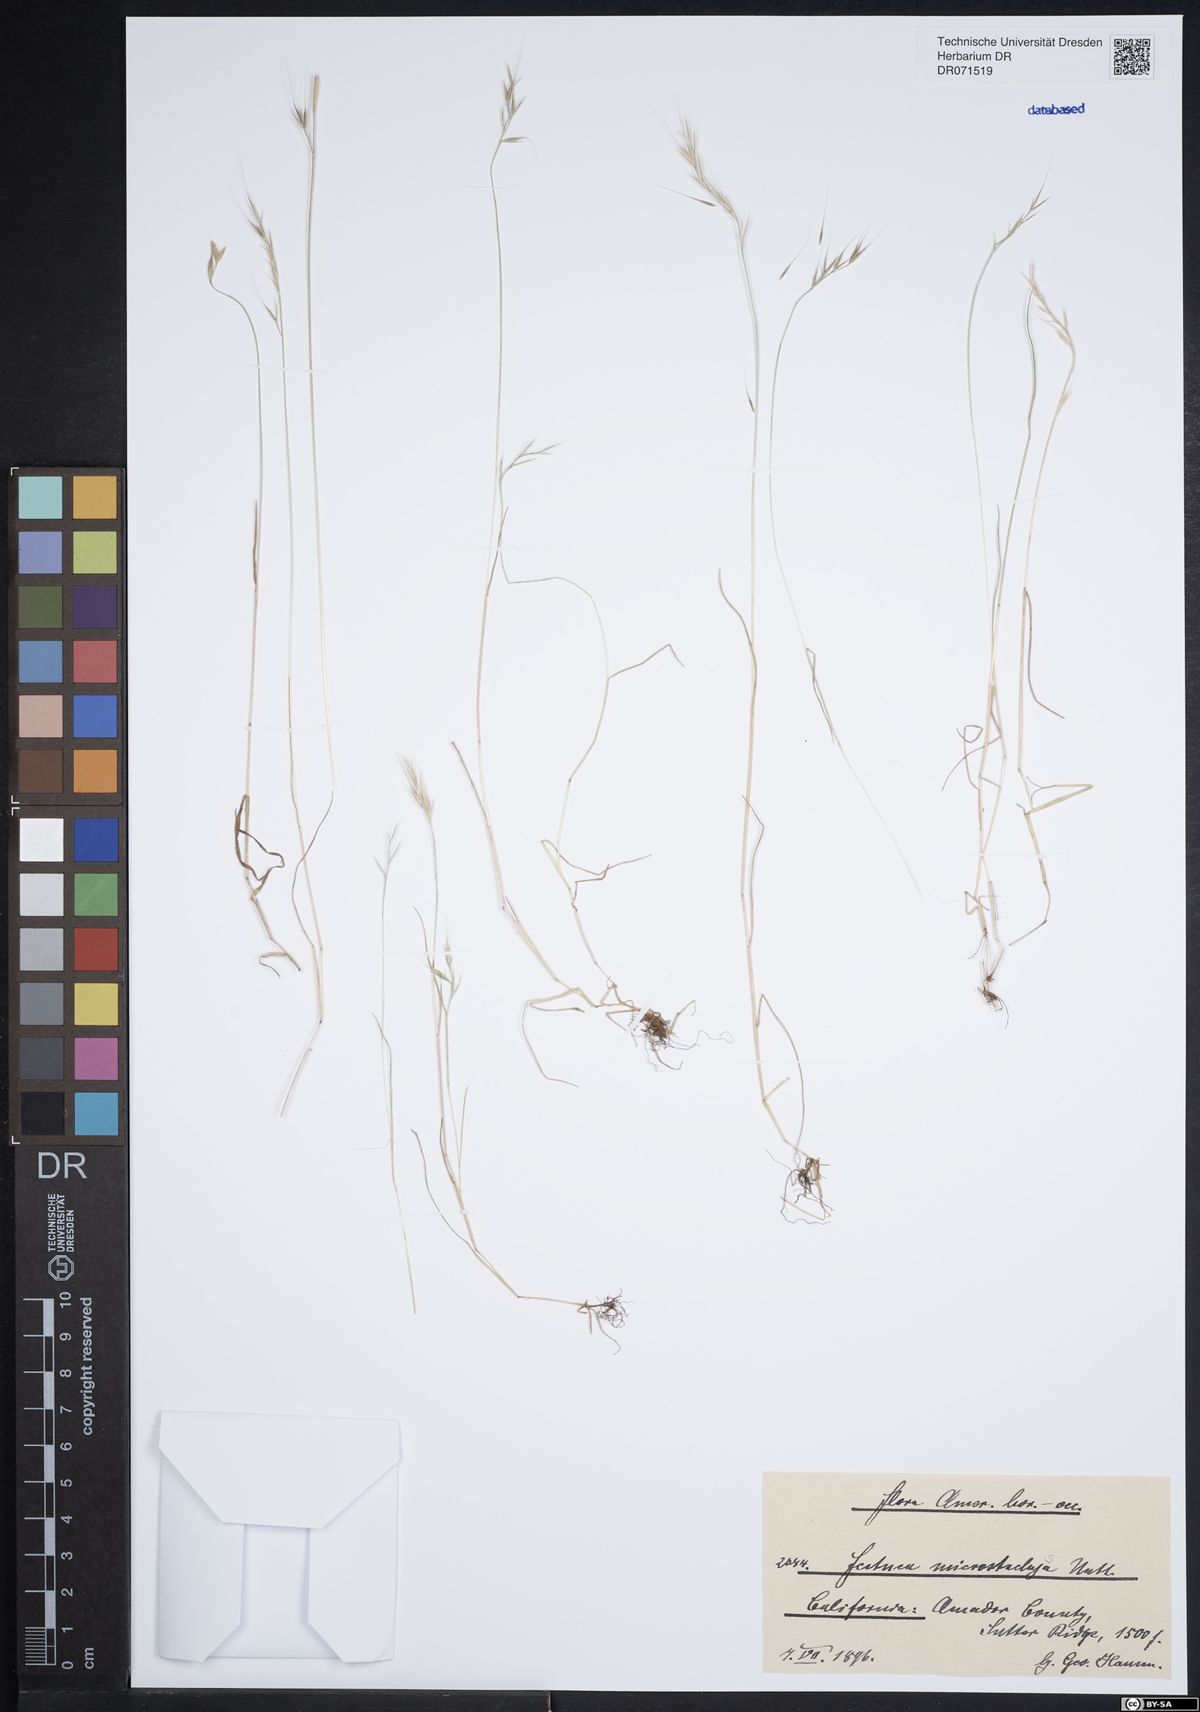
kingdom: Plantae
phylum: Tracheophyta
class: Liliopsida
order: Poales
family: Poaceae
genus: Festuca
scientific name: Festuca microstachys
